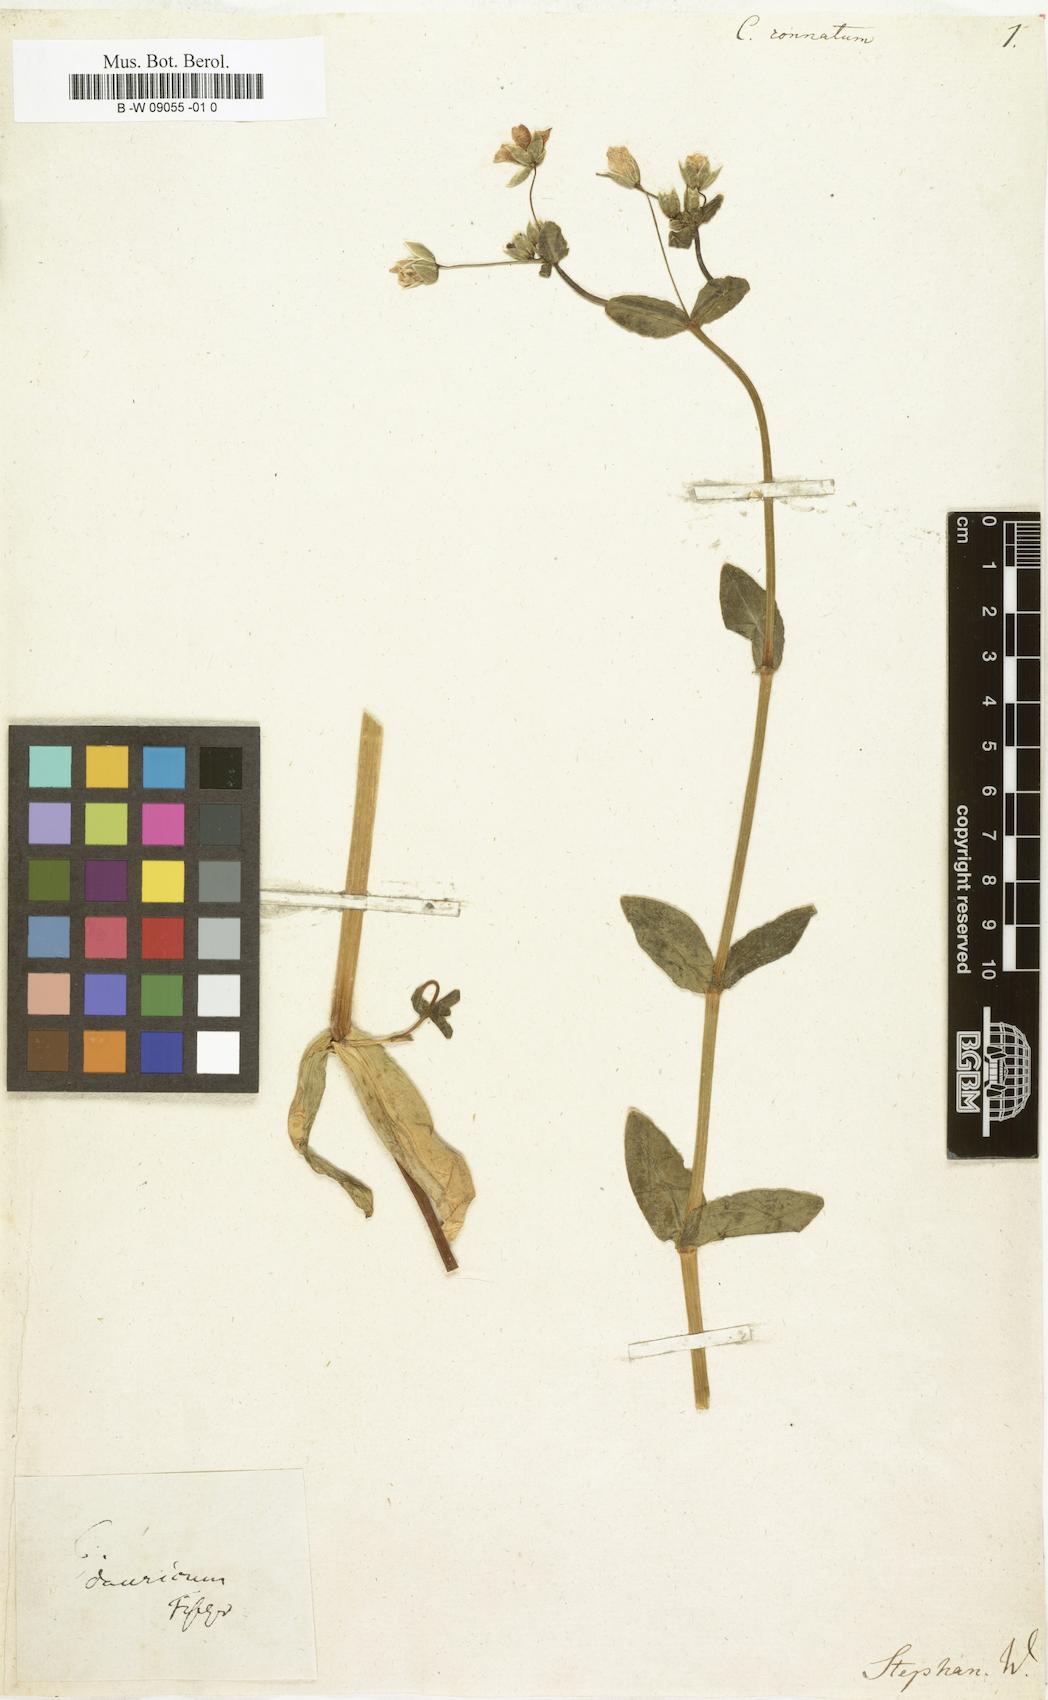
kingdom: Plantae
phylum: Tracheophyta
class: Magnoliopsida
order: Caryophyllales
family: Caryophyllaceae
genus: Cerastium
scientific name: Cerastium connatum
